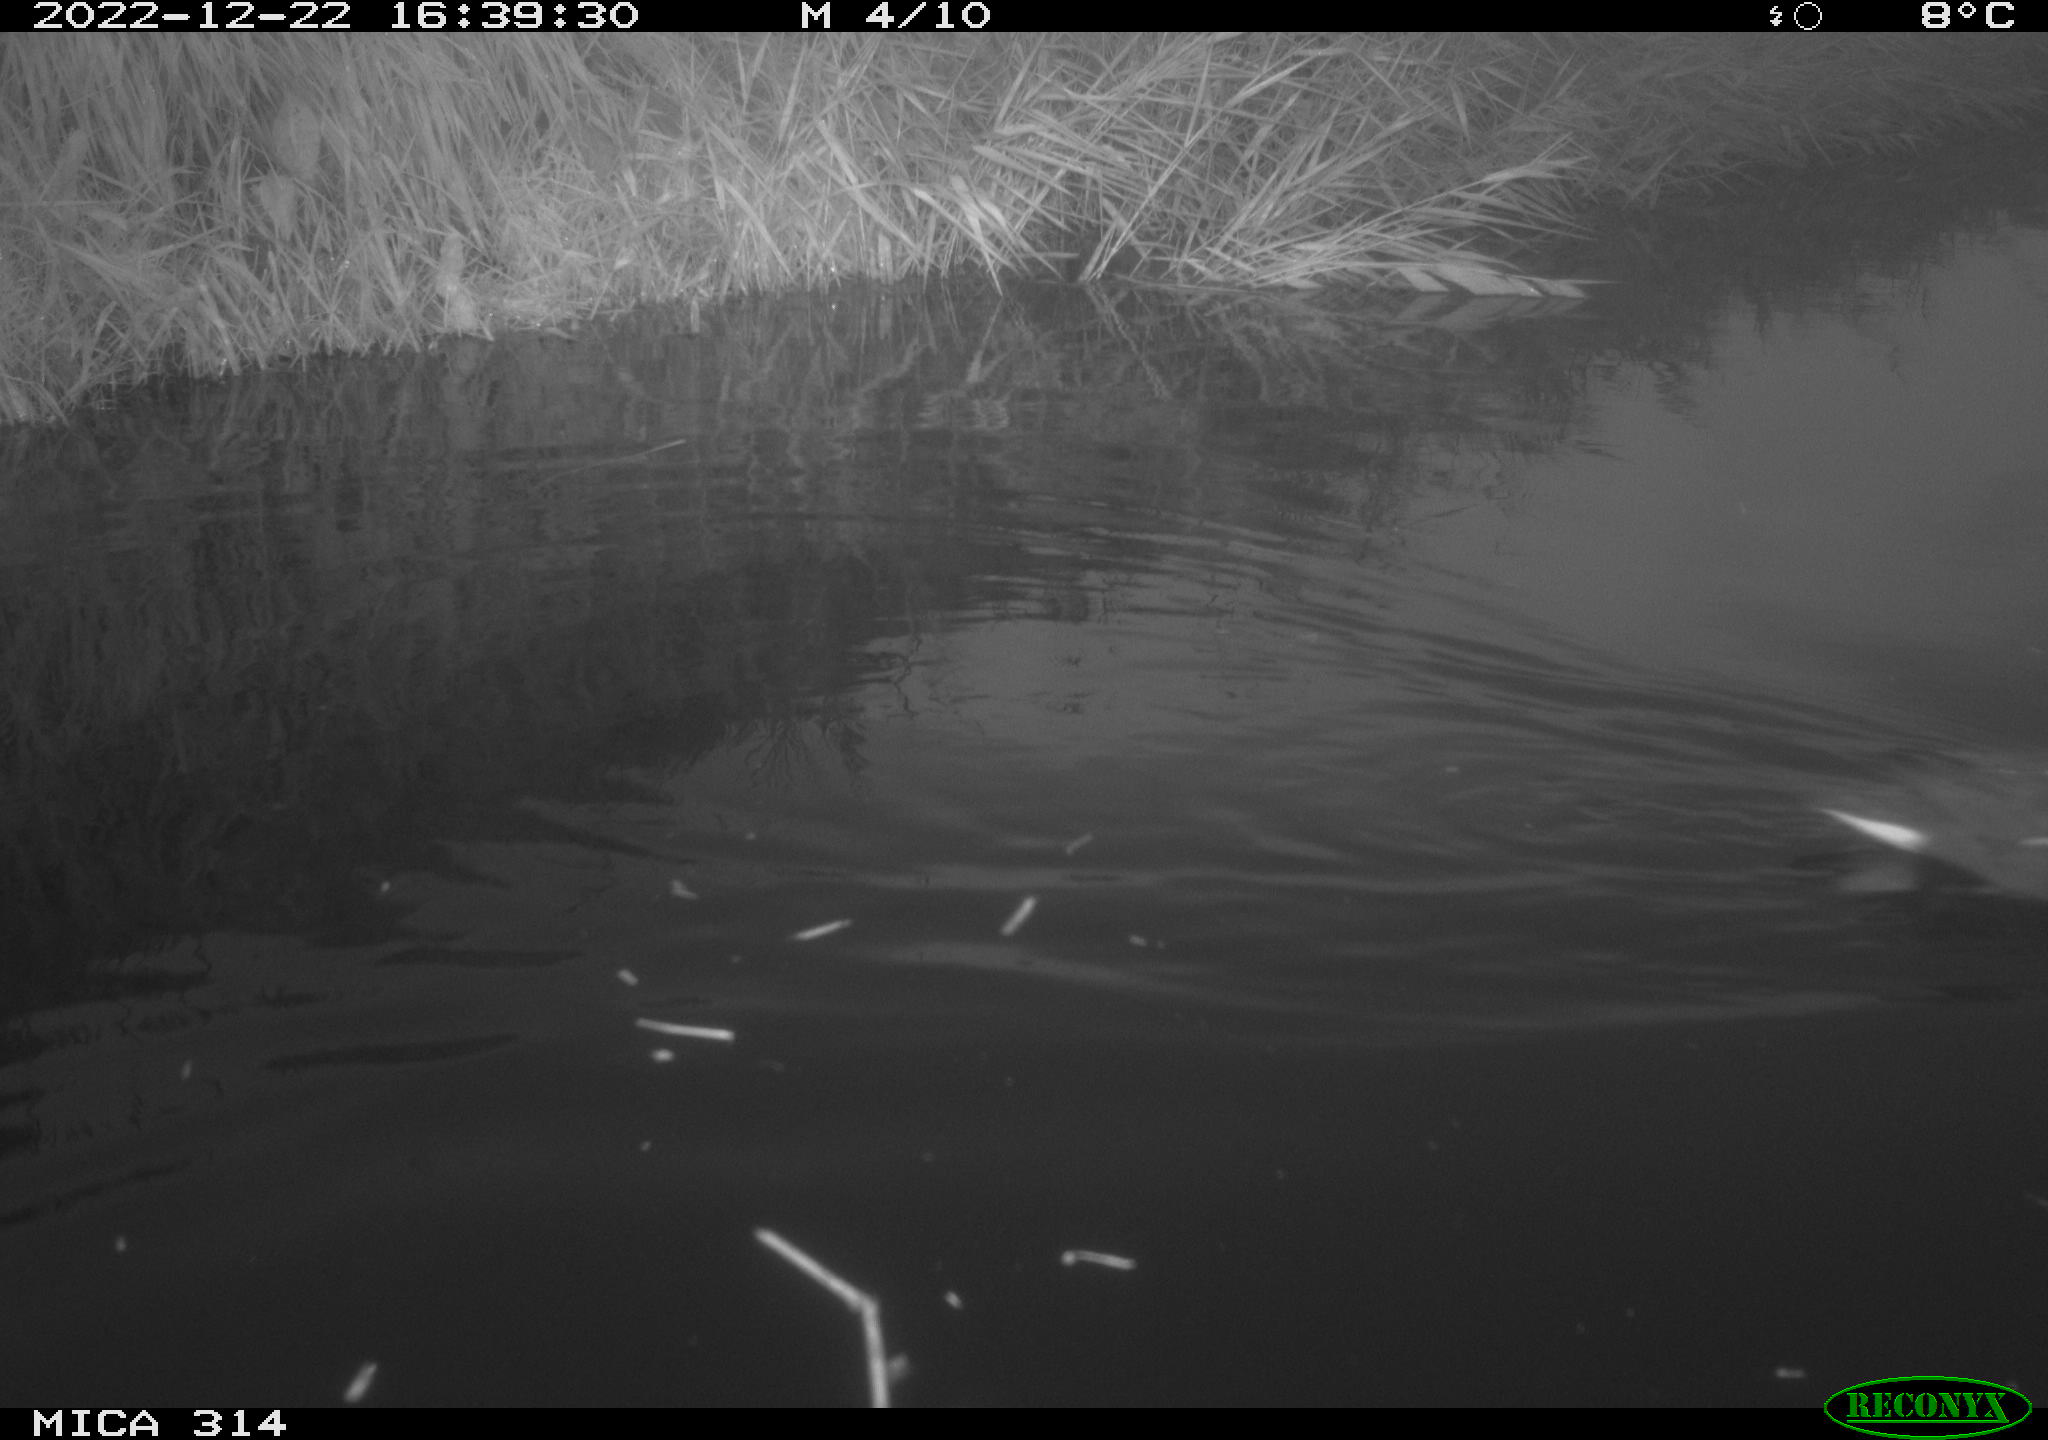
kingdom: Animalia
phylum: Chordata
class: Aves
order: Gruiformes
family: Rallidae
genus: Gallinula
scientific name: Gallinula chloropus
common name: Common moorhen
